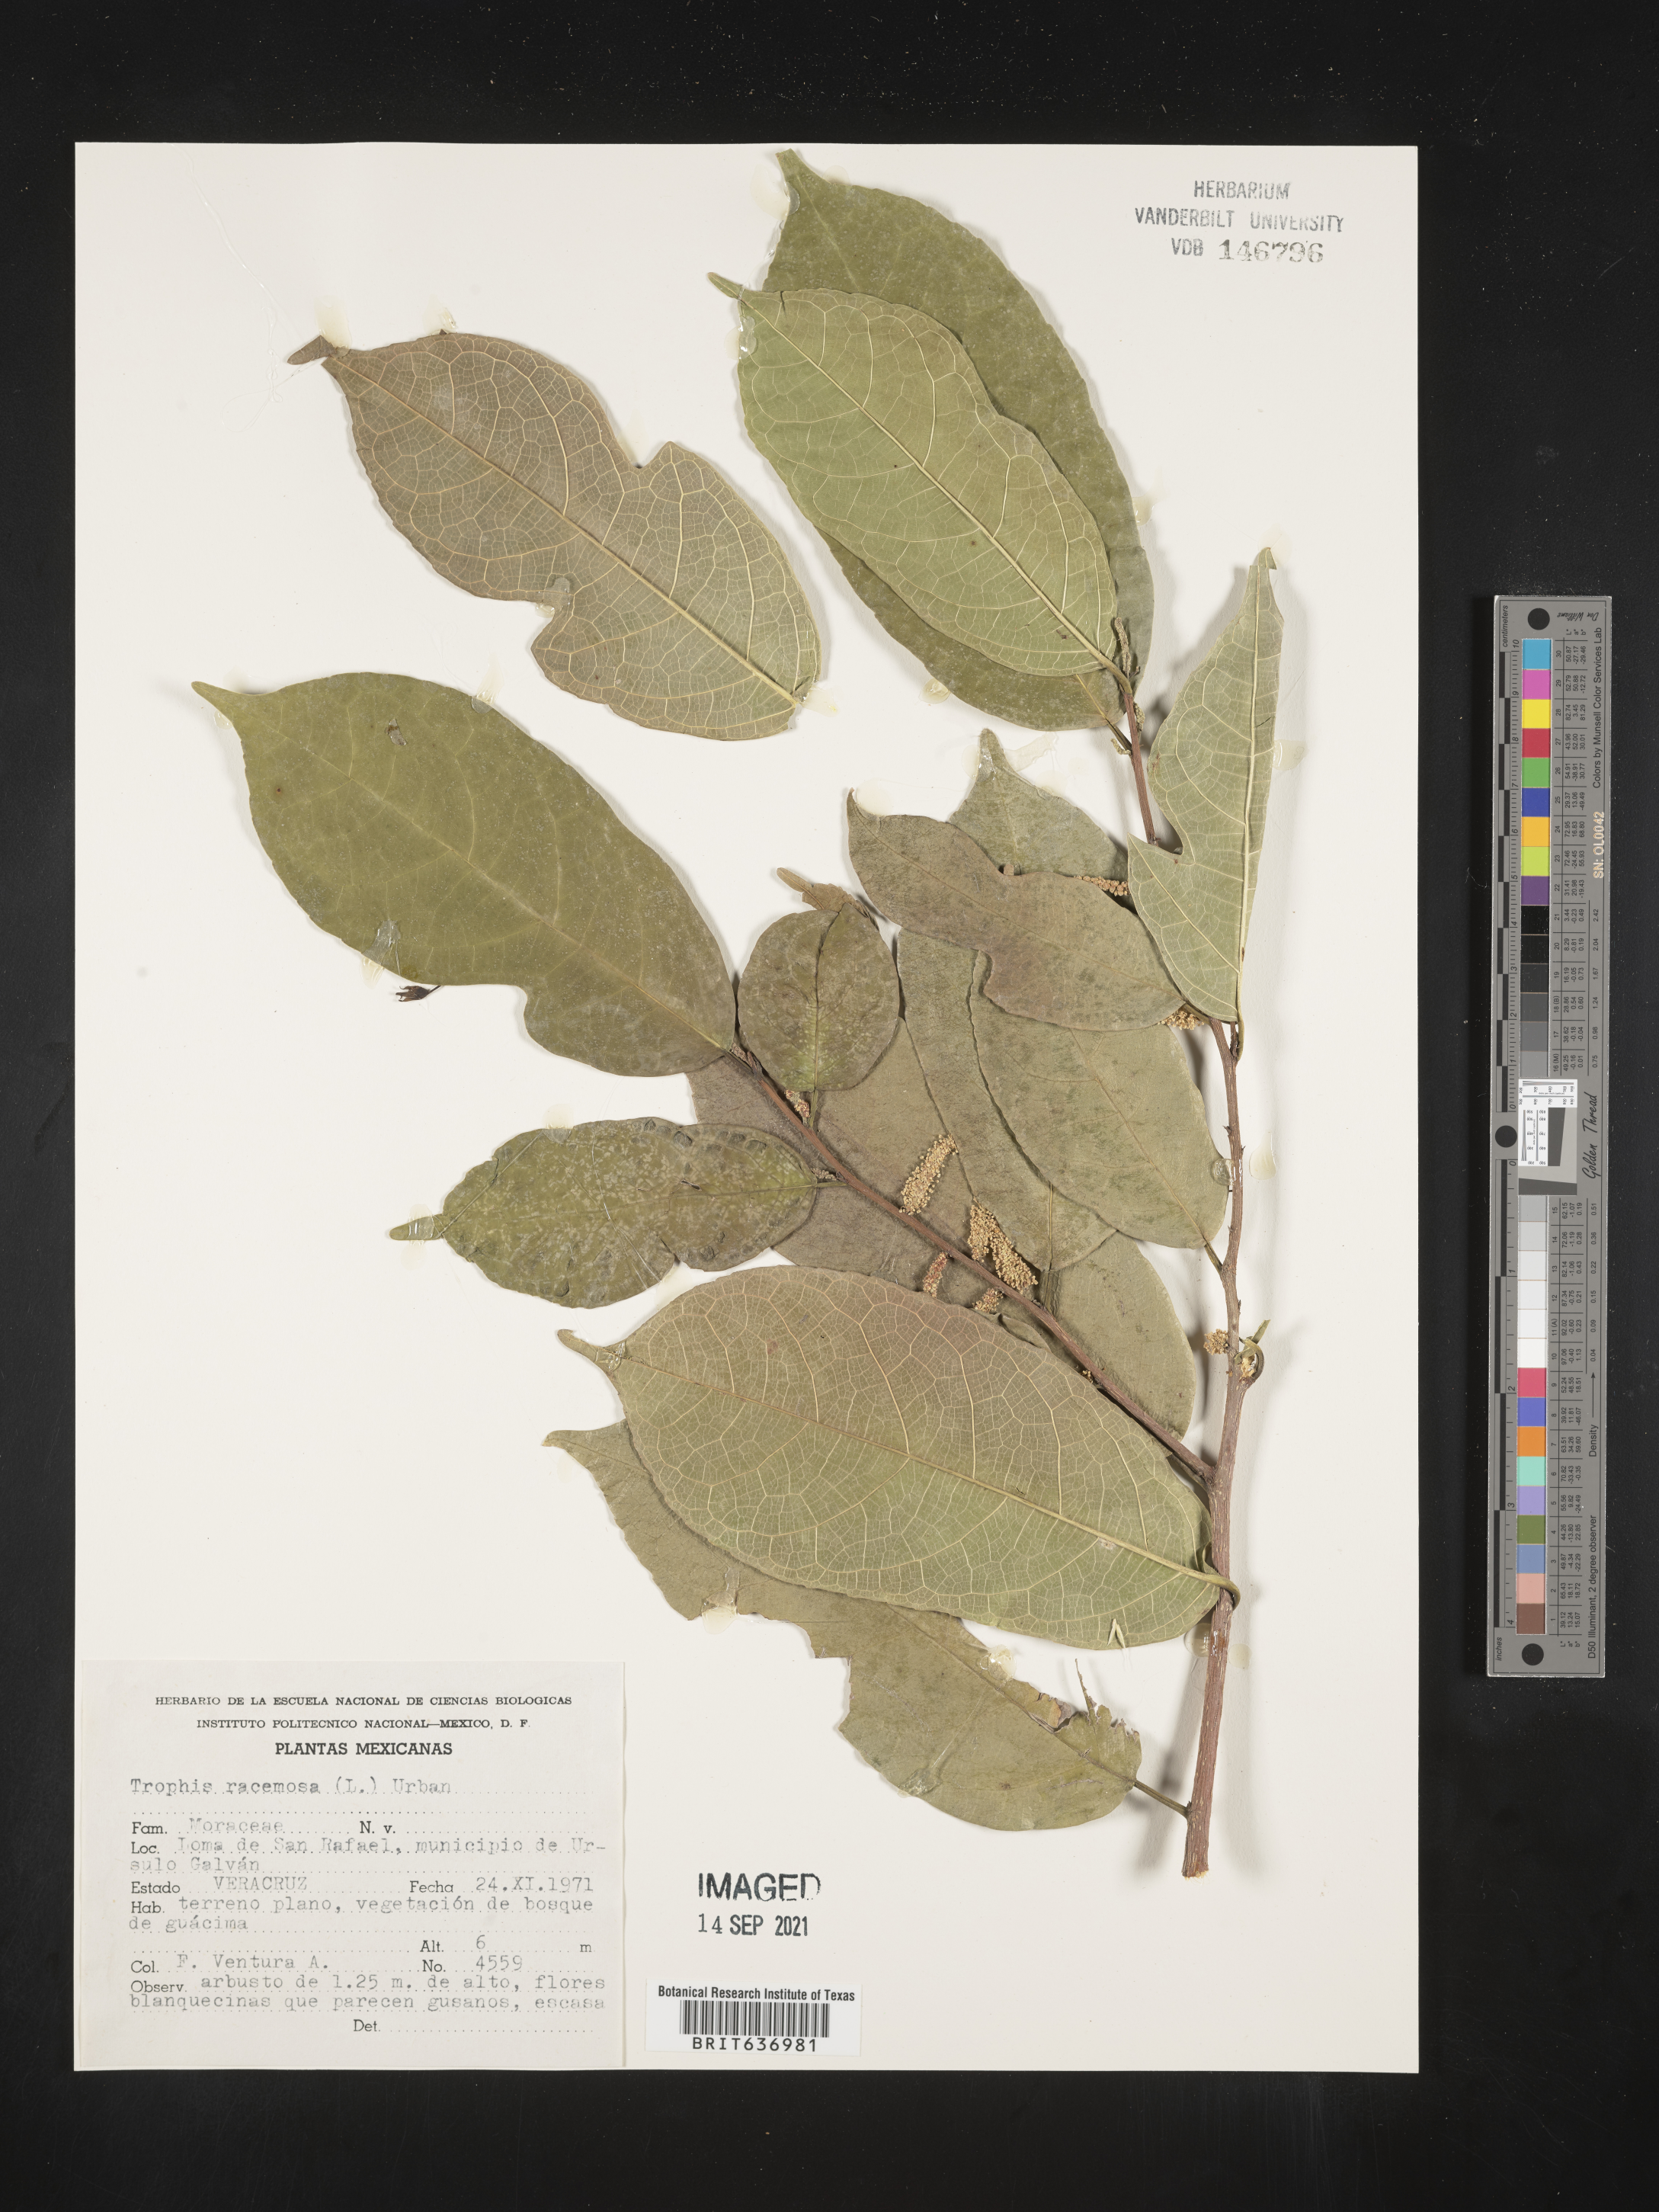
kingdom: Plantae
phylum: Tracheophyta
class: Magnoliopsida
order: Rosales
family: Moraceae
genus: Trophis
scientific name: Trophis
